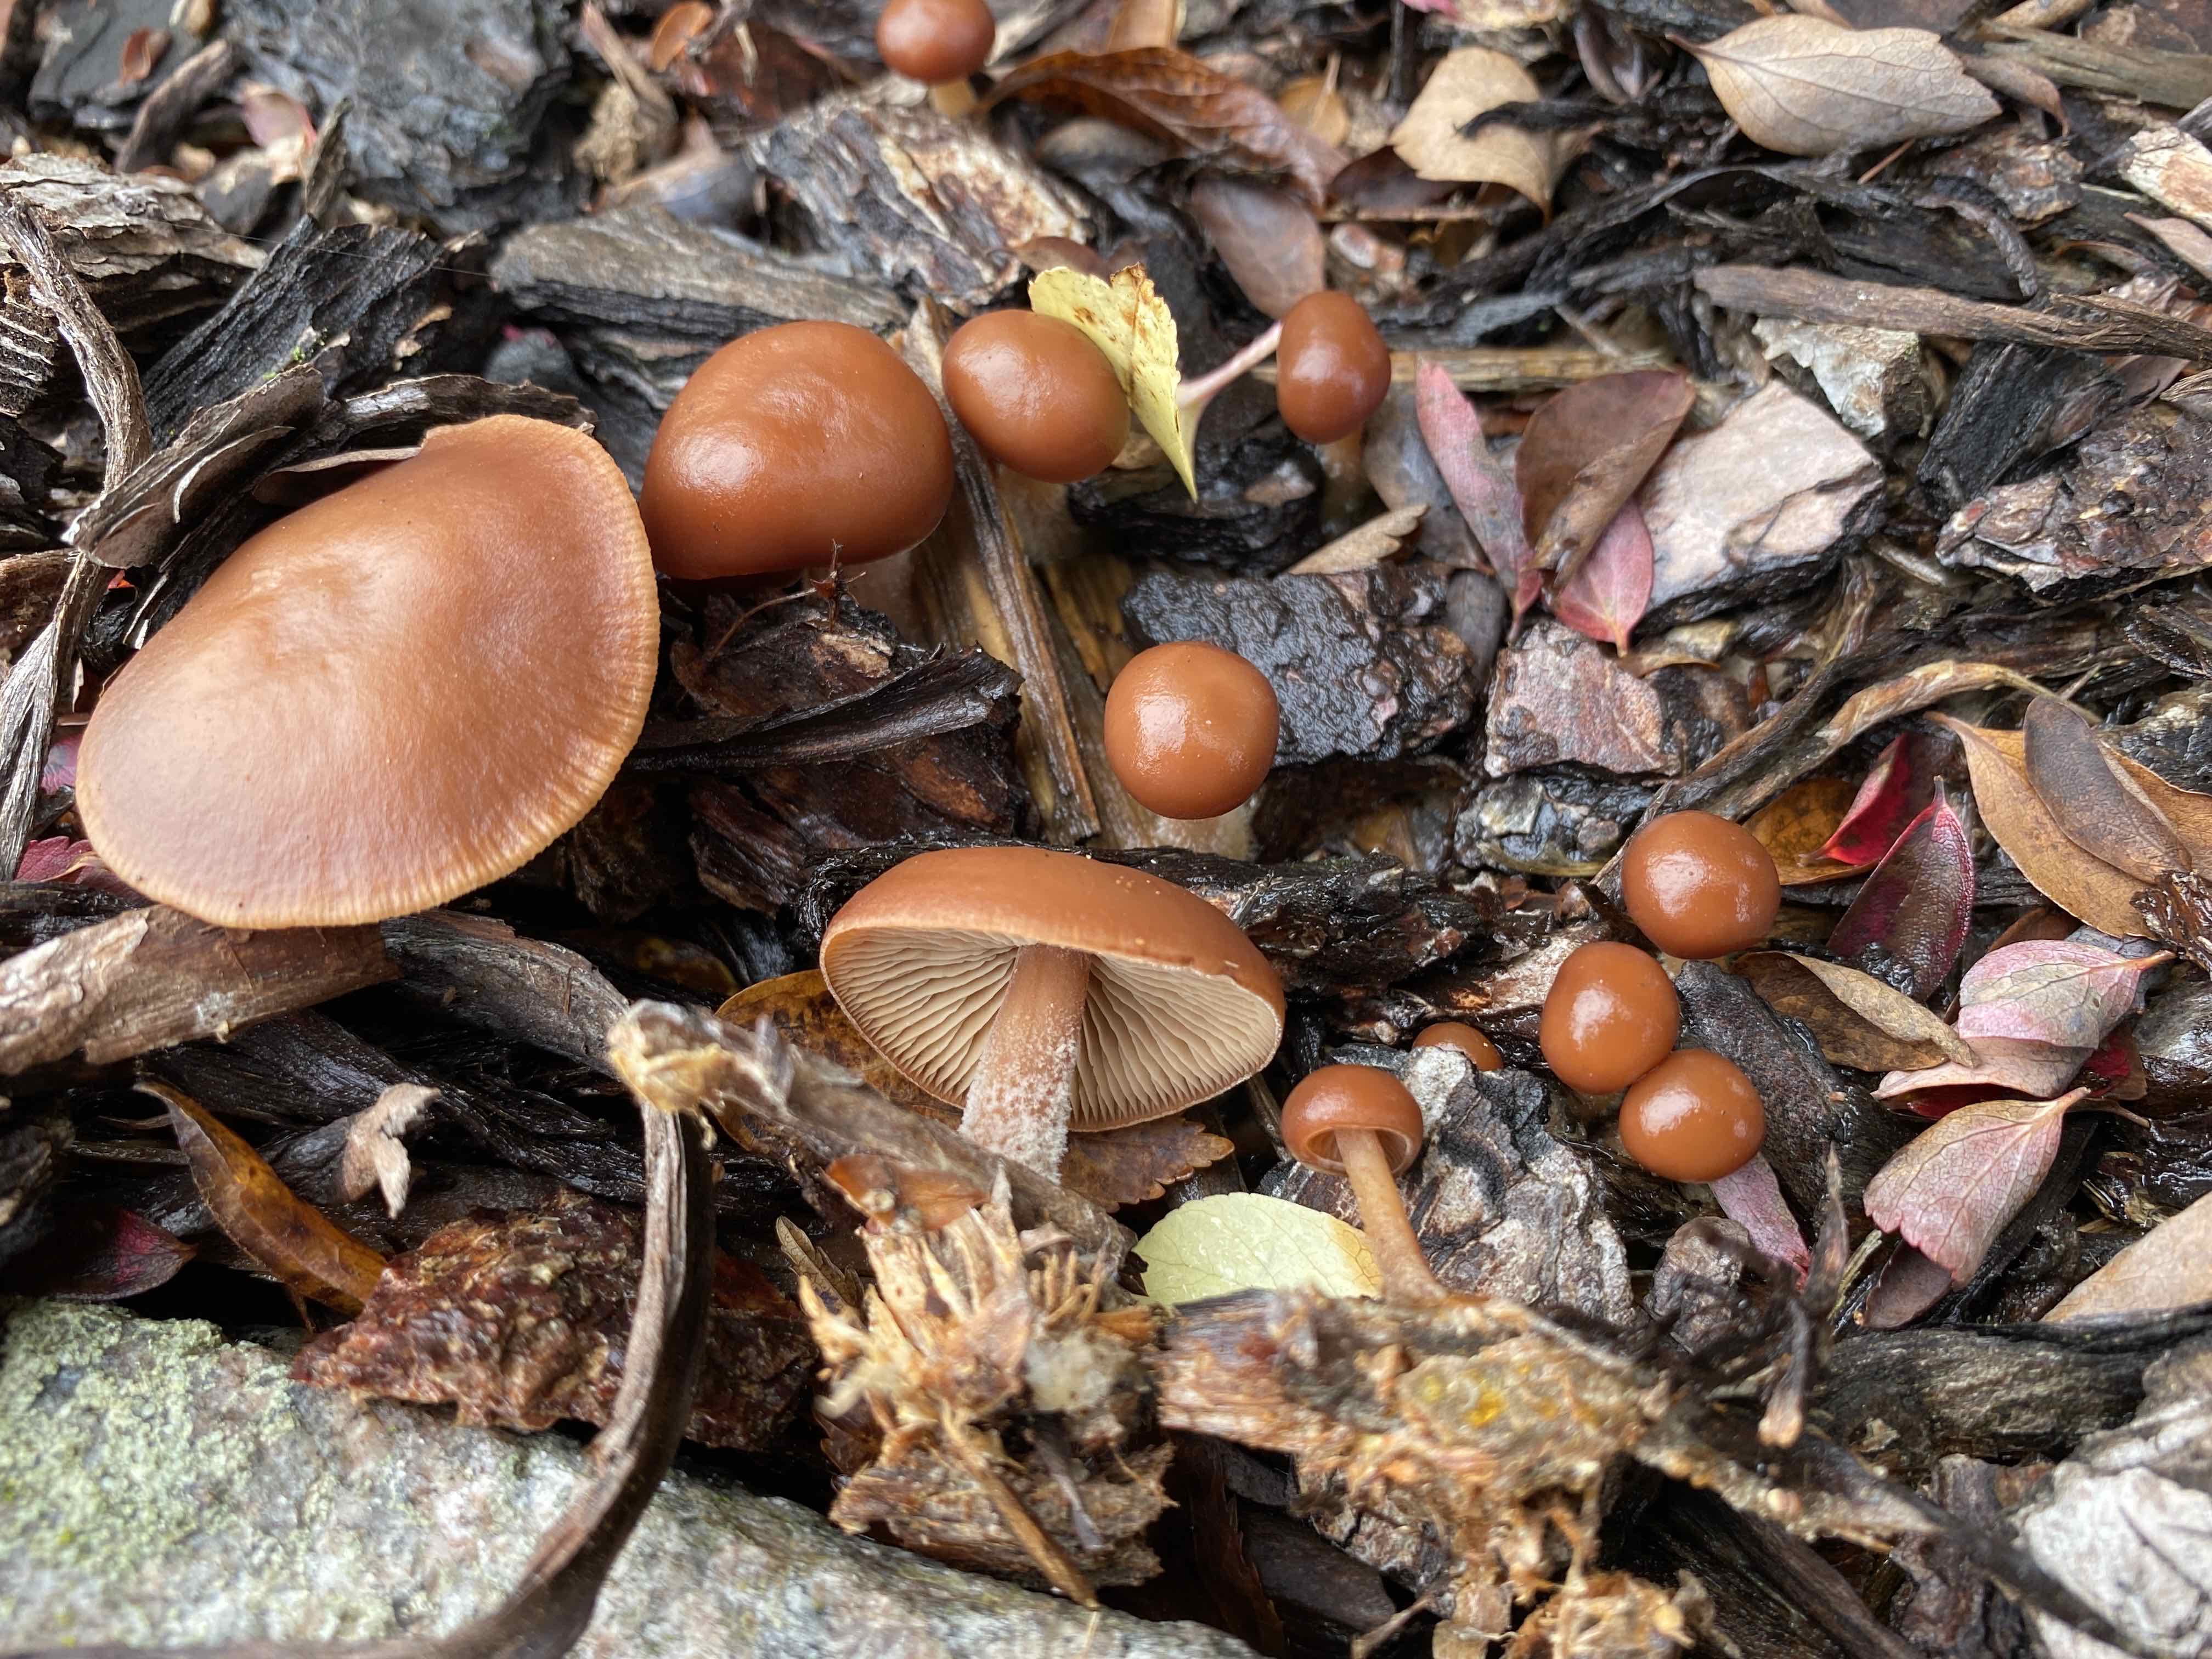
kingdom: Fungi
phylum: Basidiomycota
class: Agaricomycetes
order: Agaricales
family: Omphalotaceae
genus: Gymnopus
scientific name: Gymnopus
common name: fladhat
